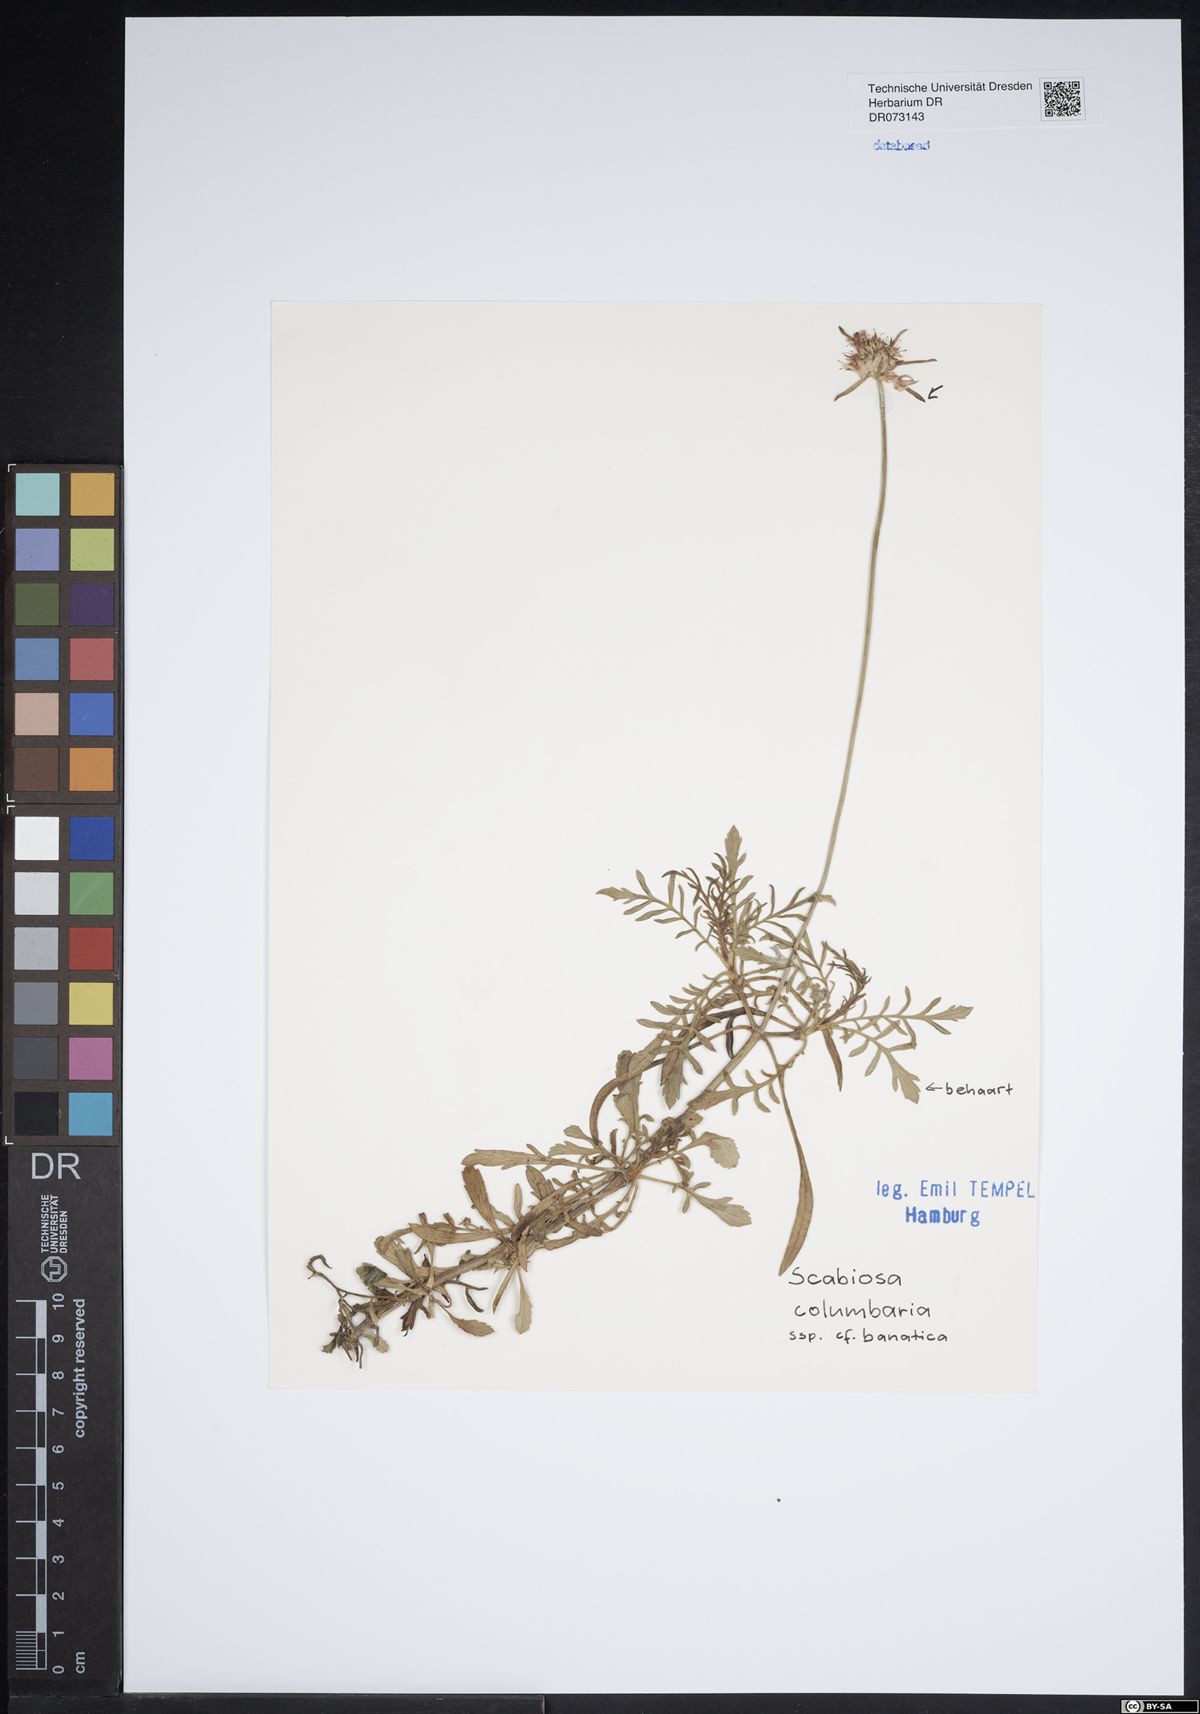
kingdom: Plantae
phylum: Tracheophyta
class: Magnoliopsida
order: Dipsacales
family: Caprifoliaceae
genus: Scabiosa
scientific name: Scabiosa columbaria
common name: Small scabious
